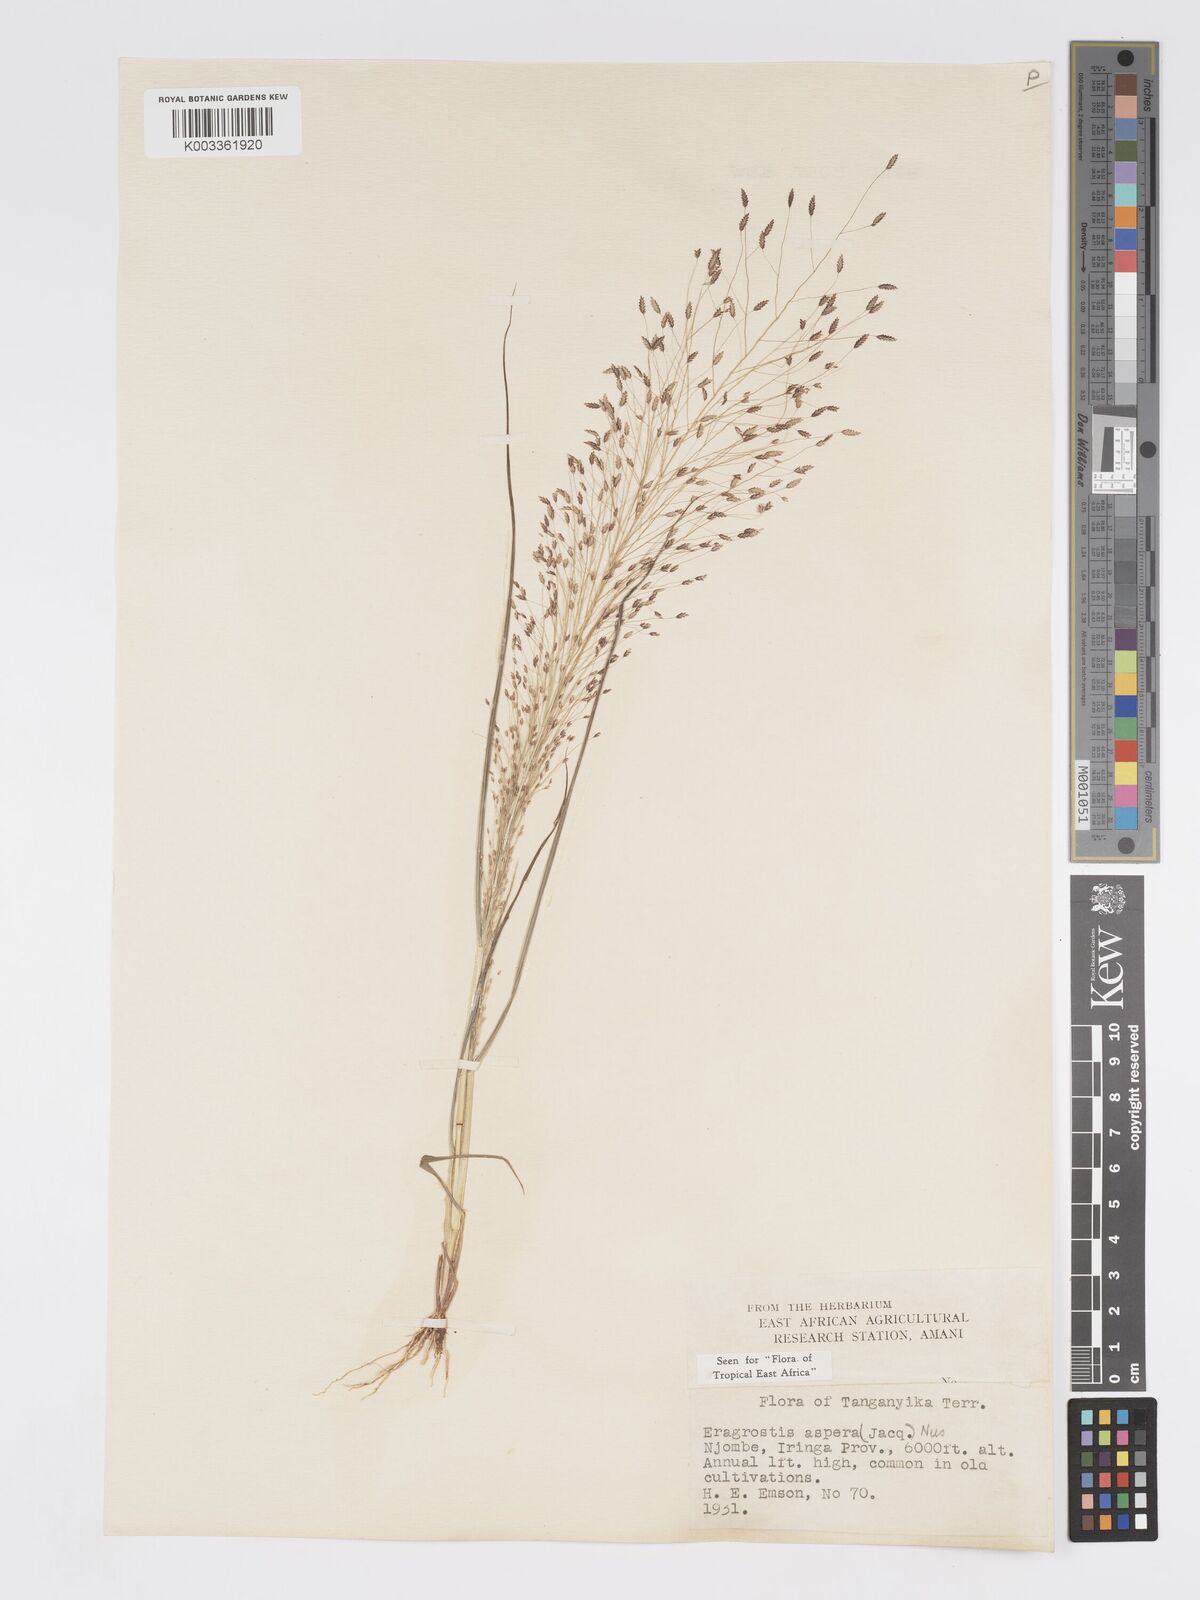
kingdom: Plantae
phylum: Tracheophyta
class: Liliopsida
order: Poales
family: Poaceae
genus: Eragrostis
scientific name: Eragrostis aspera
